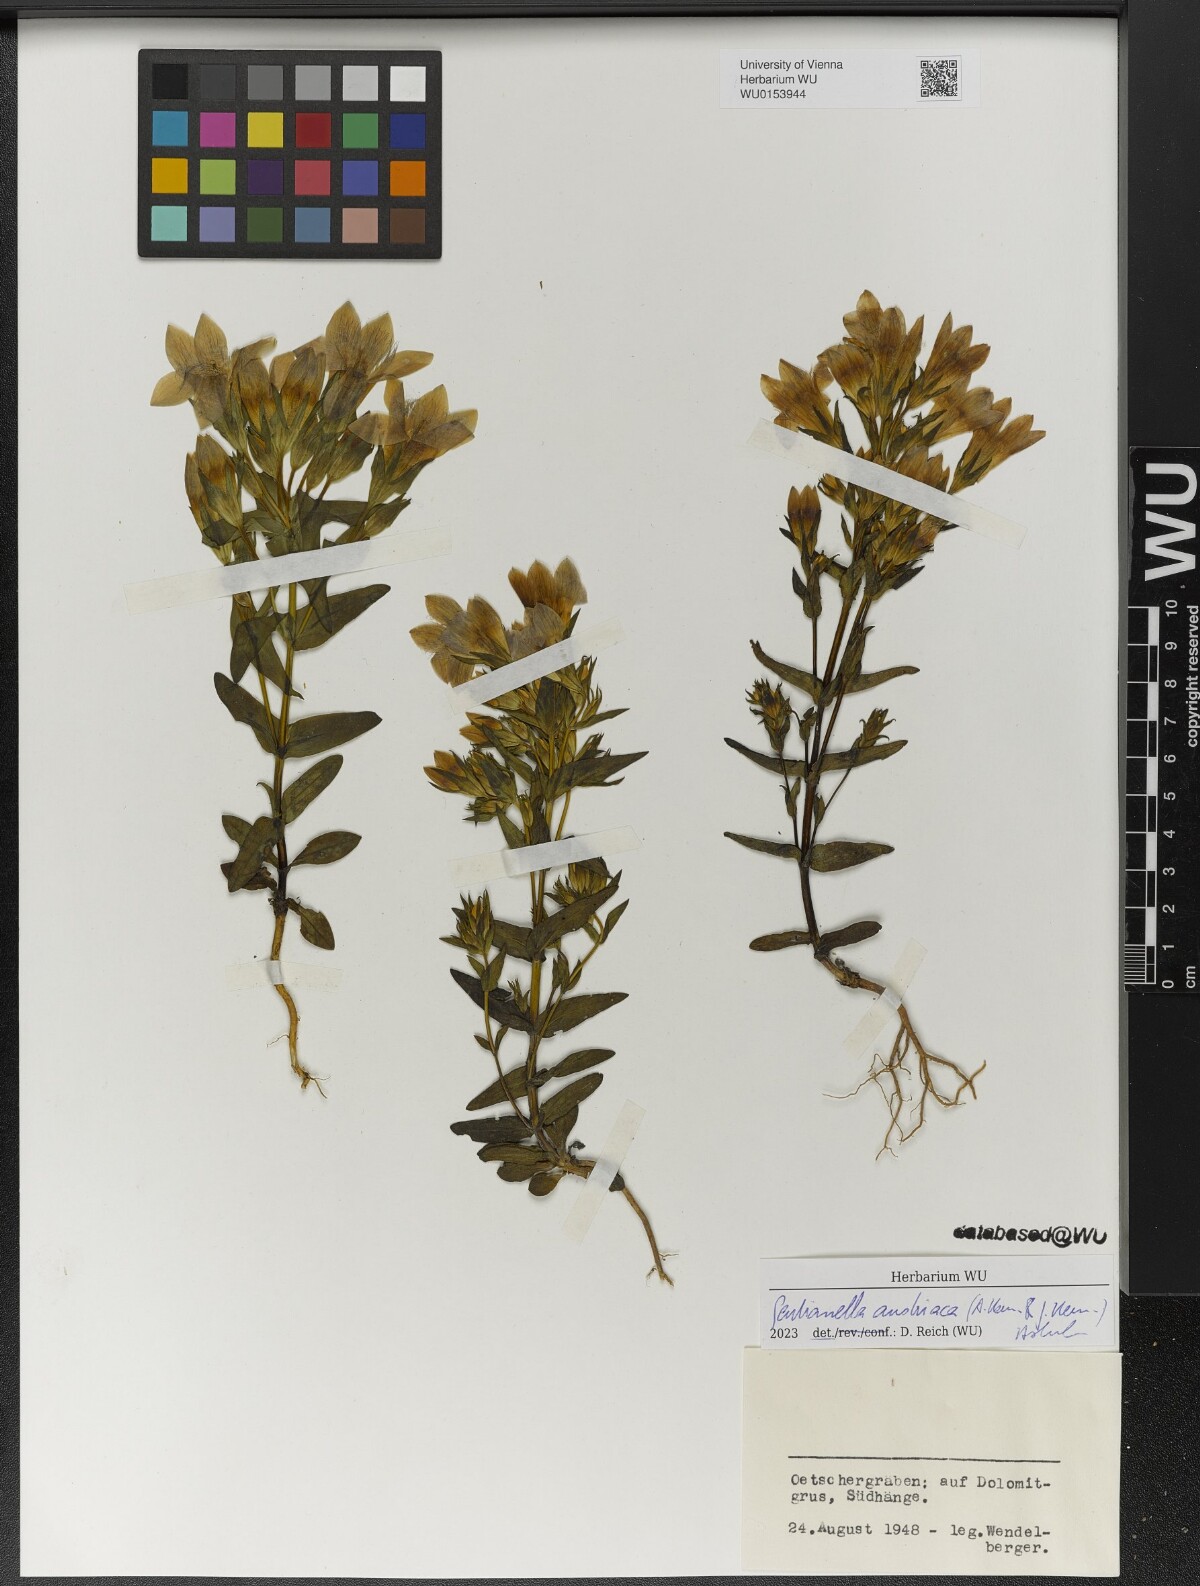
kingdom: Plantae
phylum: Tracheophyta
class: Magnoliopsida
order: Gentianales
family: Gentianaceae
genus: Gentianella
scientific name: Gentianella austriaca
